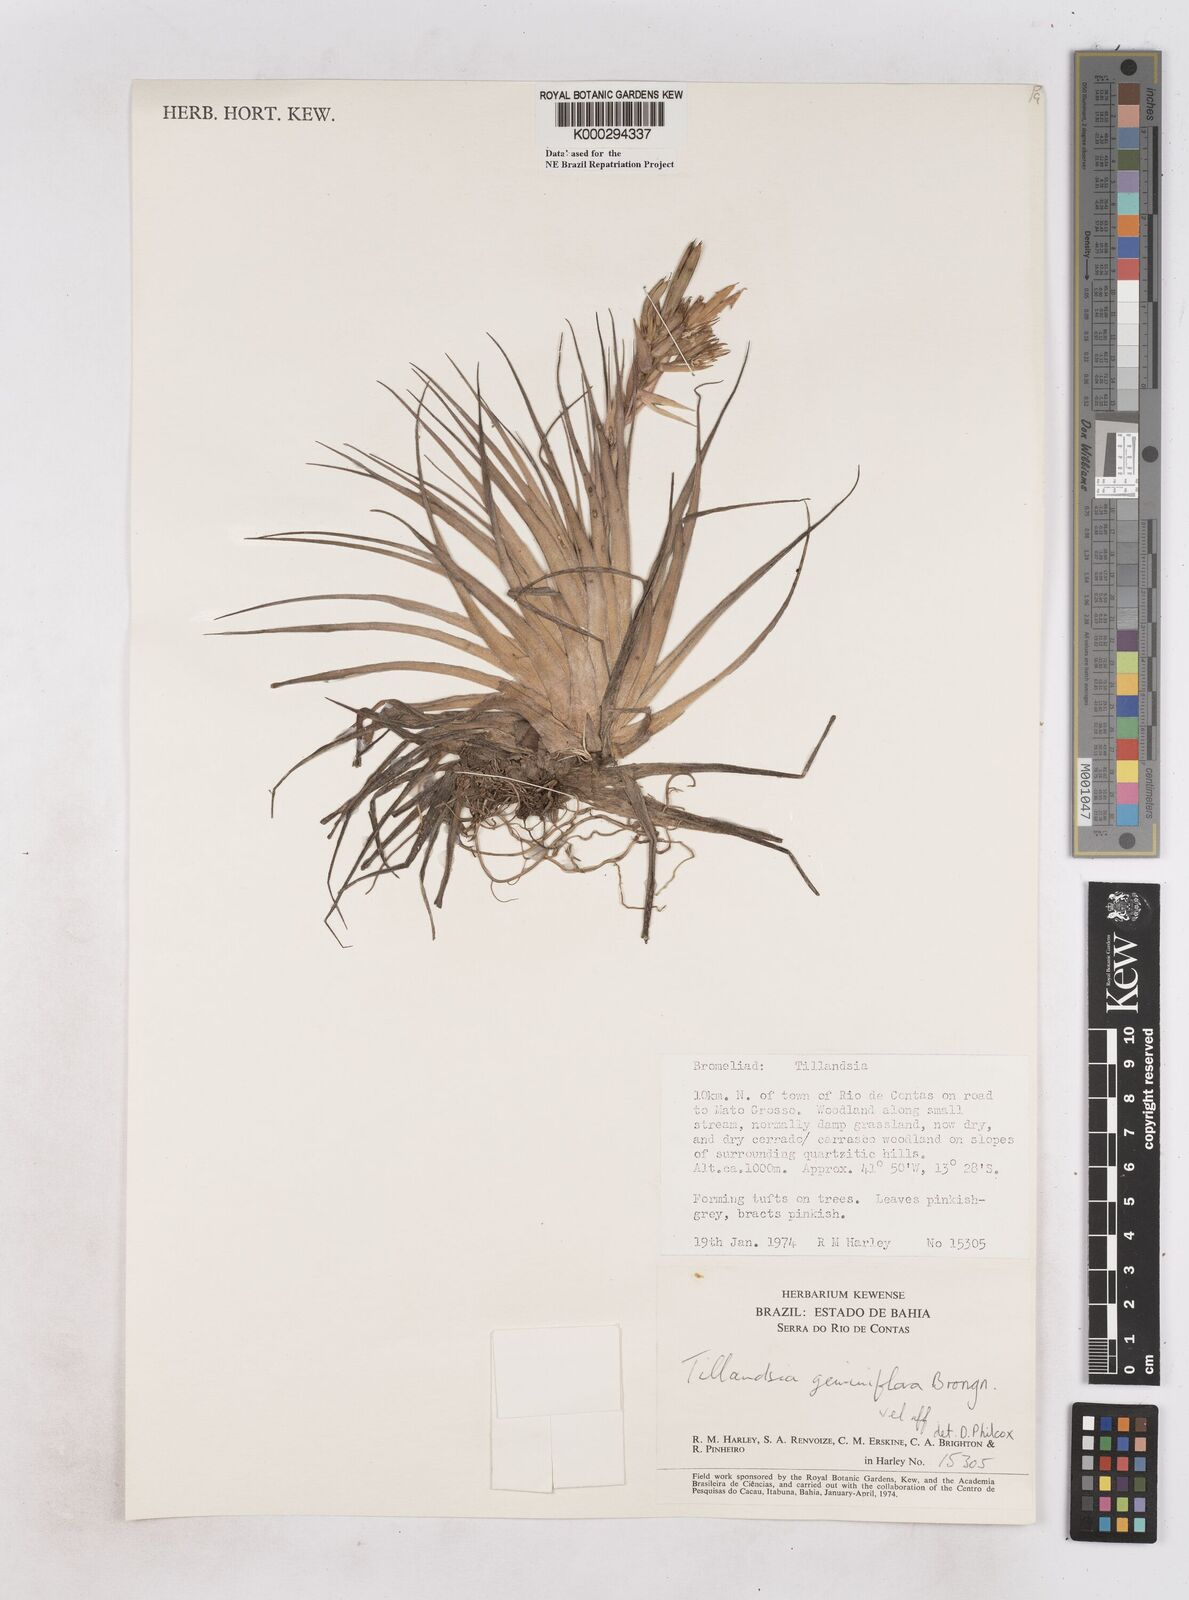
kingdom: Plantae
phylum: Tracheophyta
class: Liliopsida
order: Poales
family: Bromeliaceae
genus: Tillandsia
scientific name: Tillandsia geminiflora
